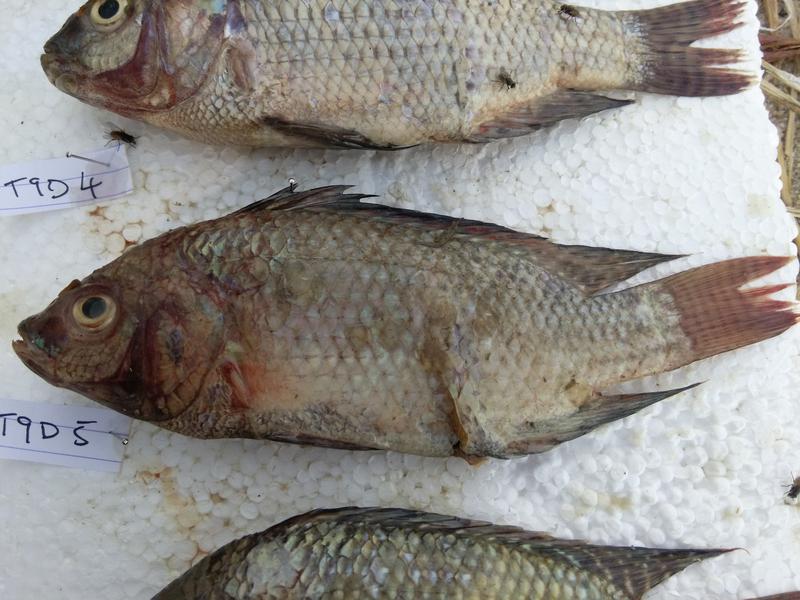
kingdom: Animalia
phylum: Chordata
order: Perciformes
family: Cichlidae
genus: Oreochromis
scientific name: Oreochromis niloticus
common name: Nile tilapia
